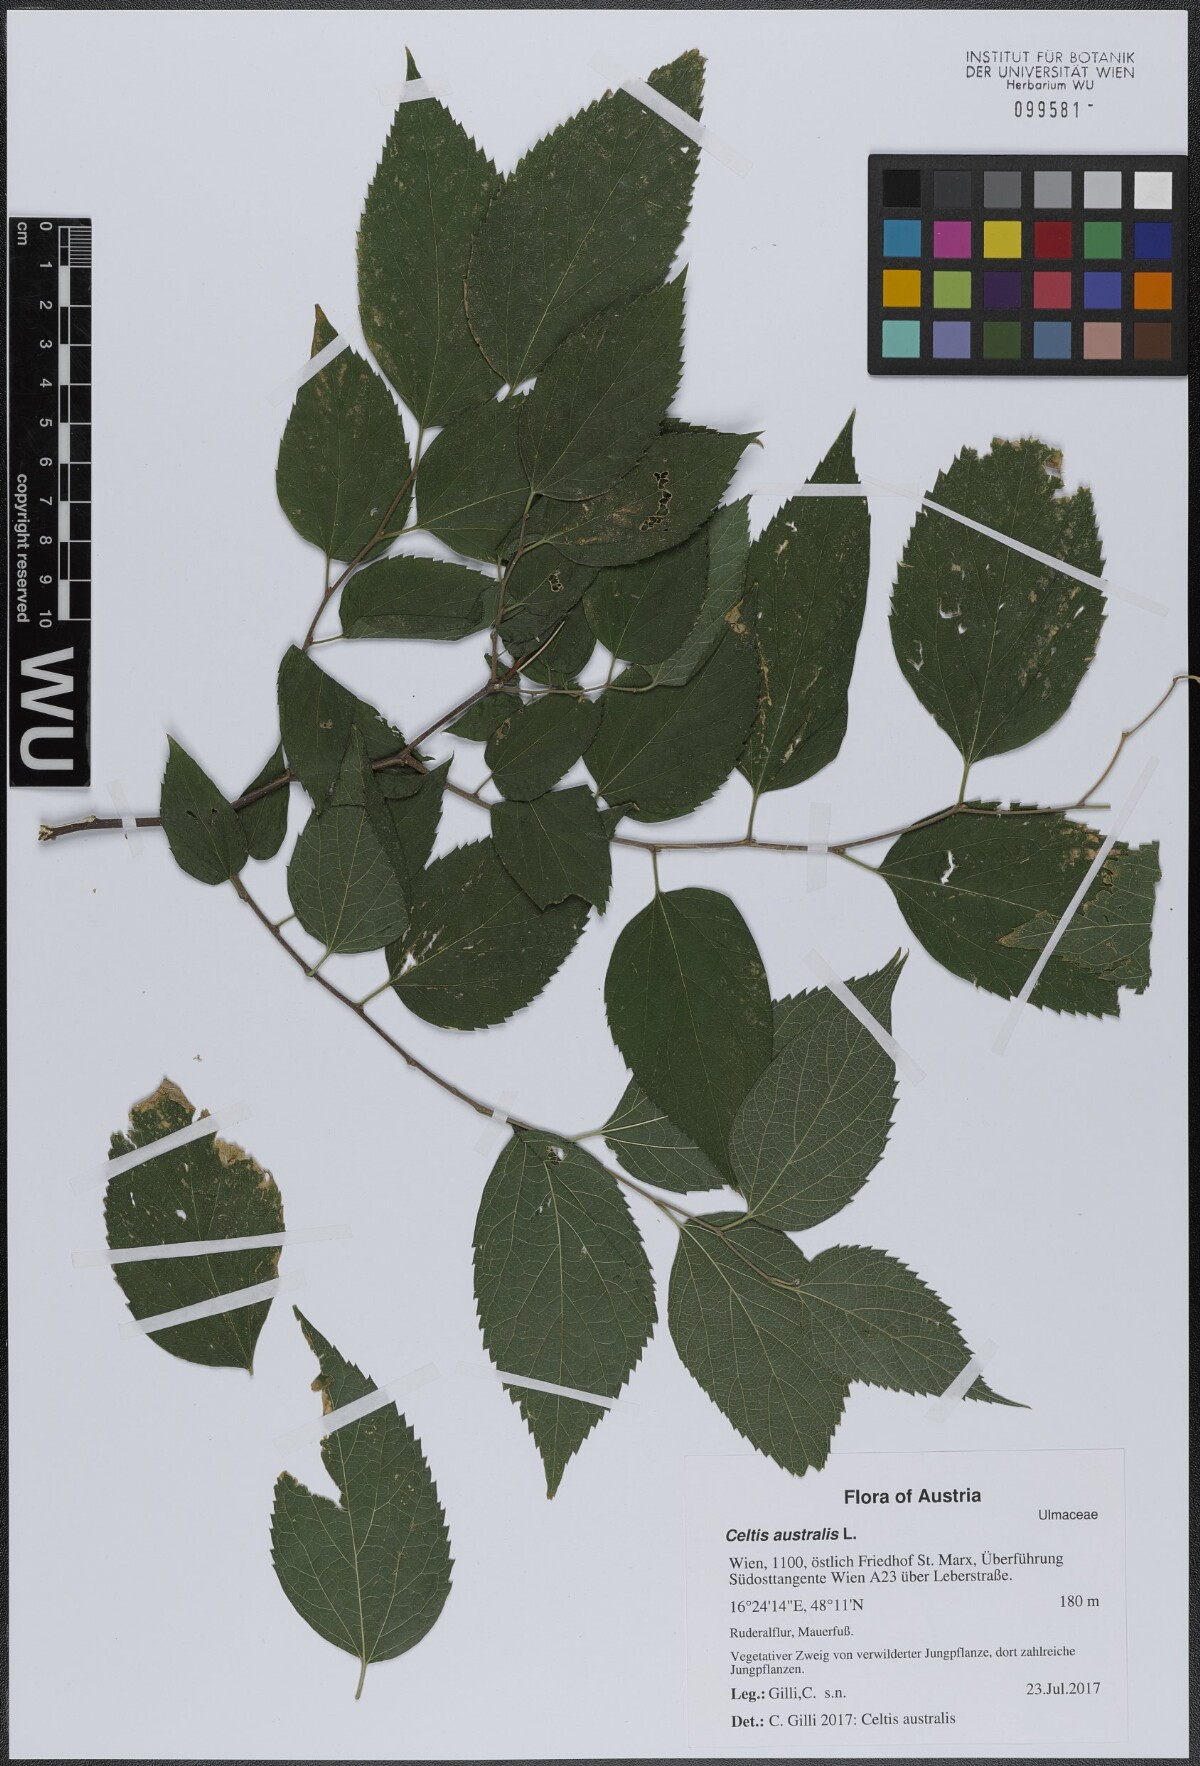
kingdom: Plantae
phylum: Tracheophyta
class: Magnoliopsida
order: Rosales
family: Cannabaceae
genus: Celtis
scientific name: Celtis australis
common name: European hackberry
